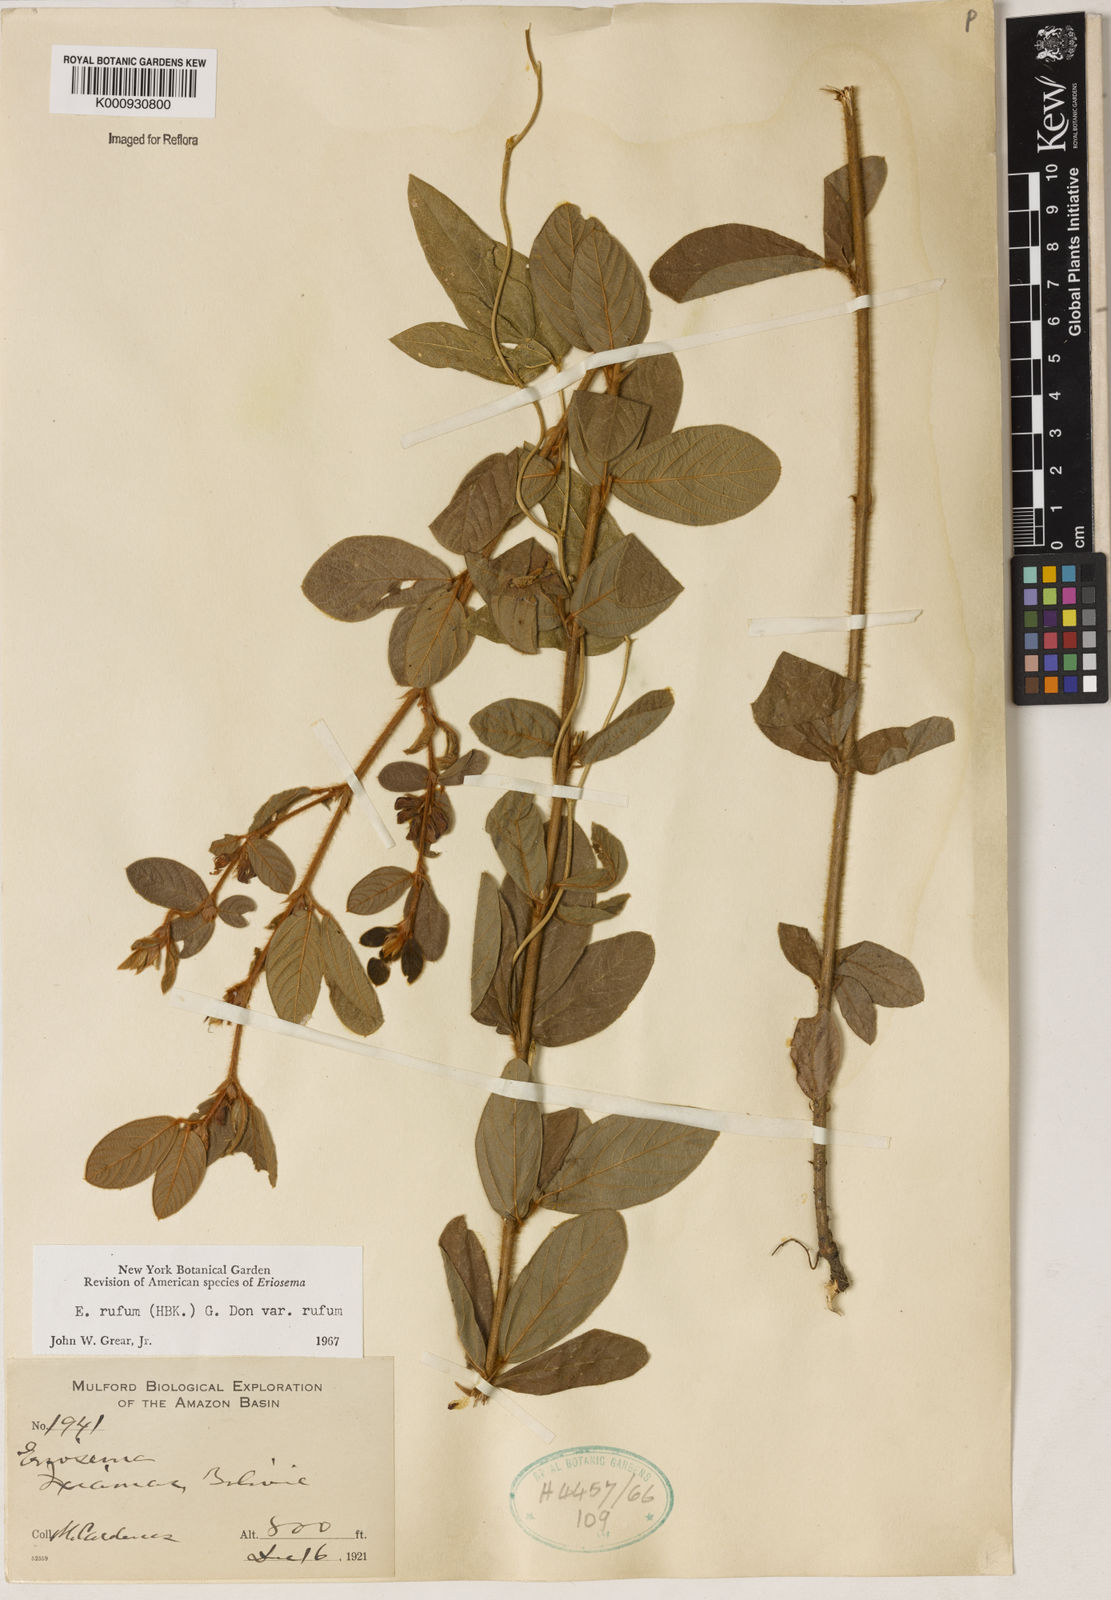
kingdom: Plantae
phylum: Tracheophyta
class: Magnoliopsida
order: Fabales
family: Fabaceae
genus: Eriosema
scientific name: Eriosema rufum
